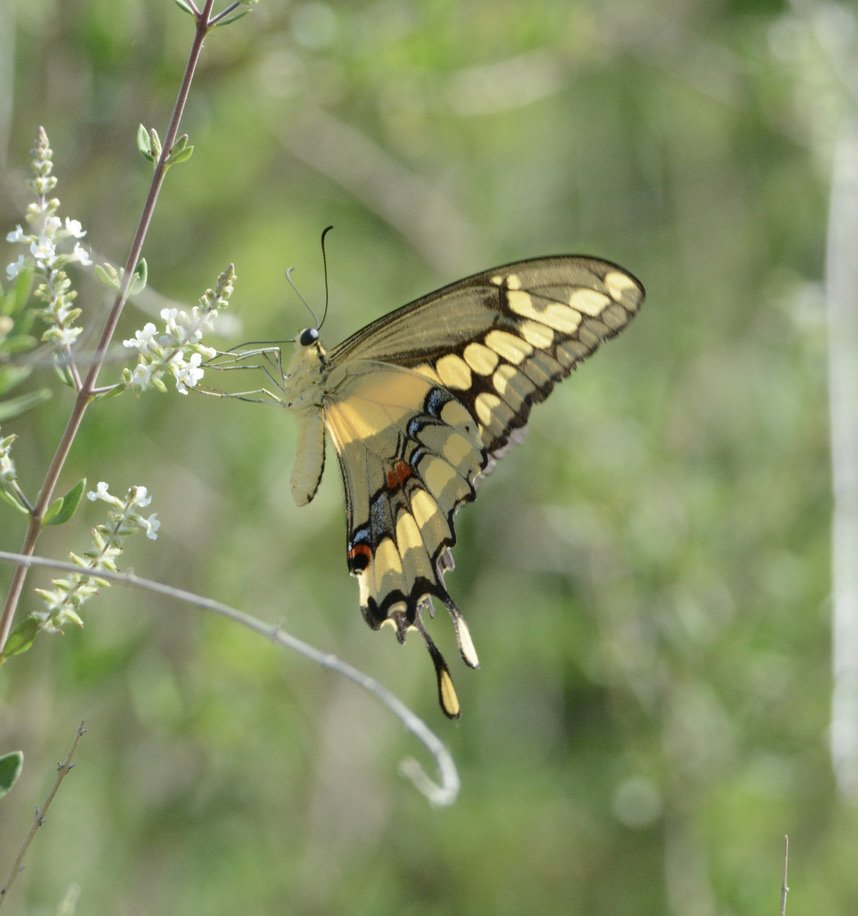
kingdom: Animalia
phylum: Arthropoda
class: Insecta
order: Lepidoptera
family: Papilionidae
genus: Papilio
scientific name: Papilio rumiko
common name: Western Giant Swallowtail
